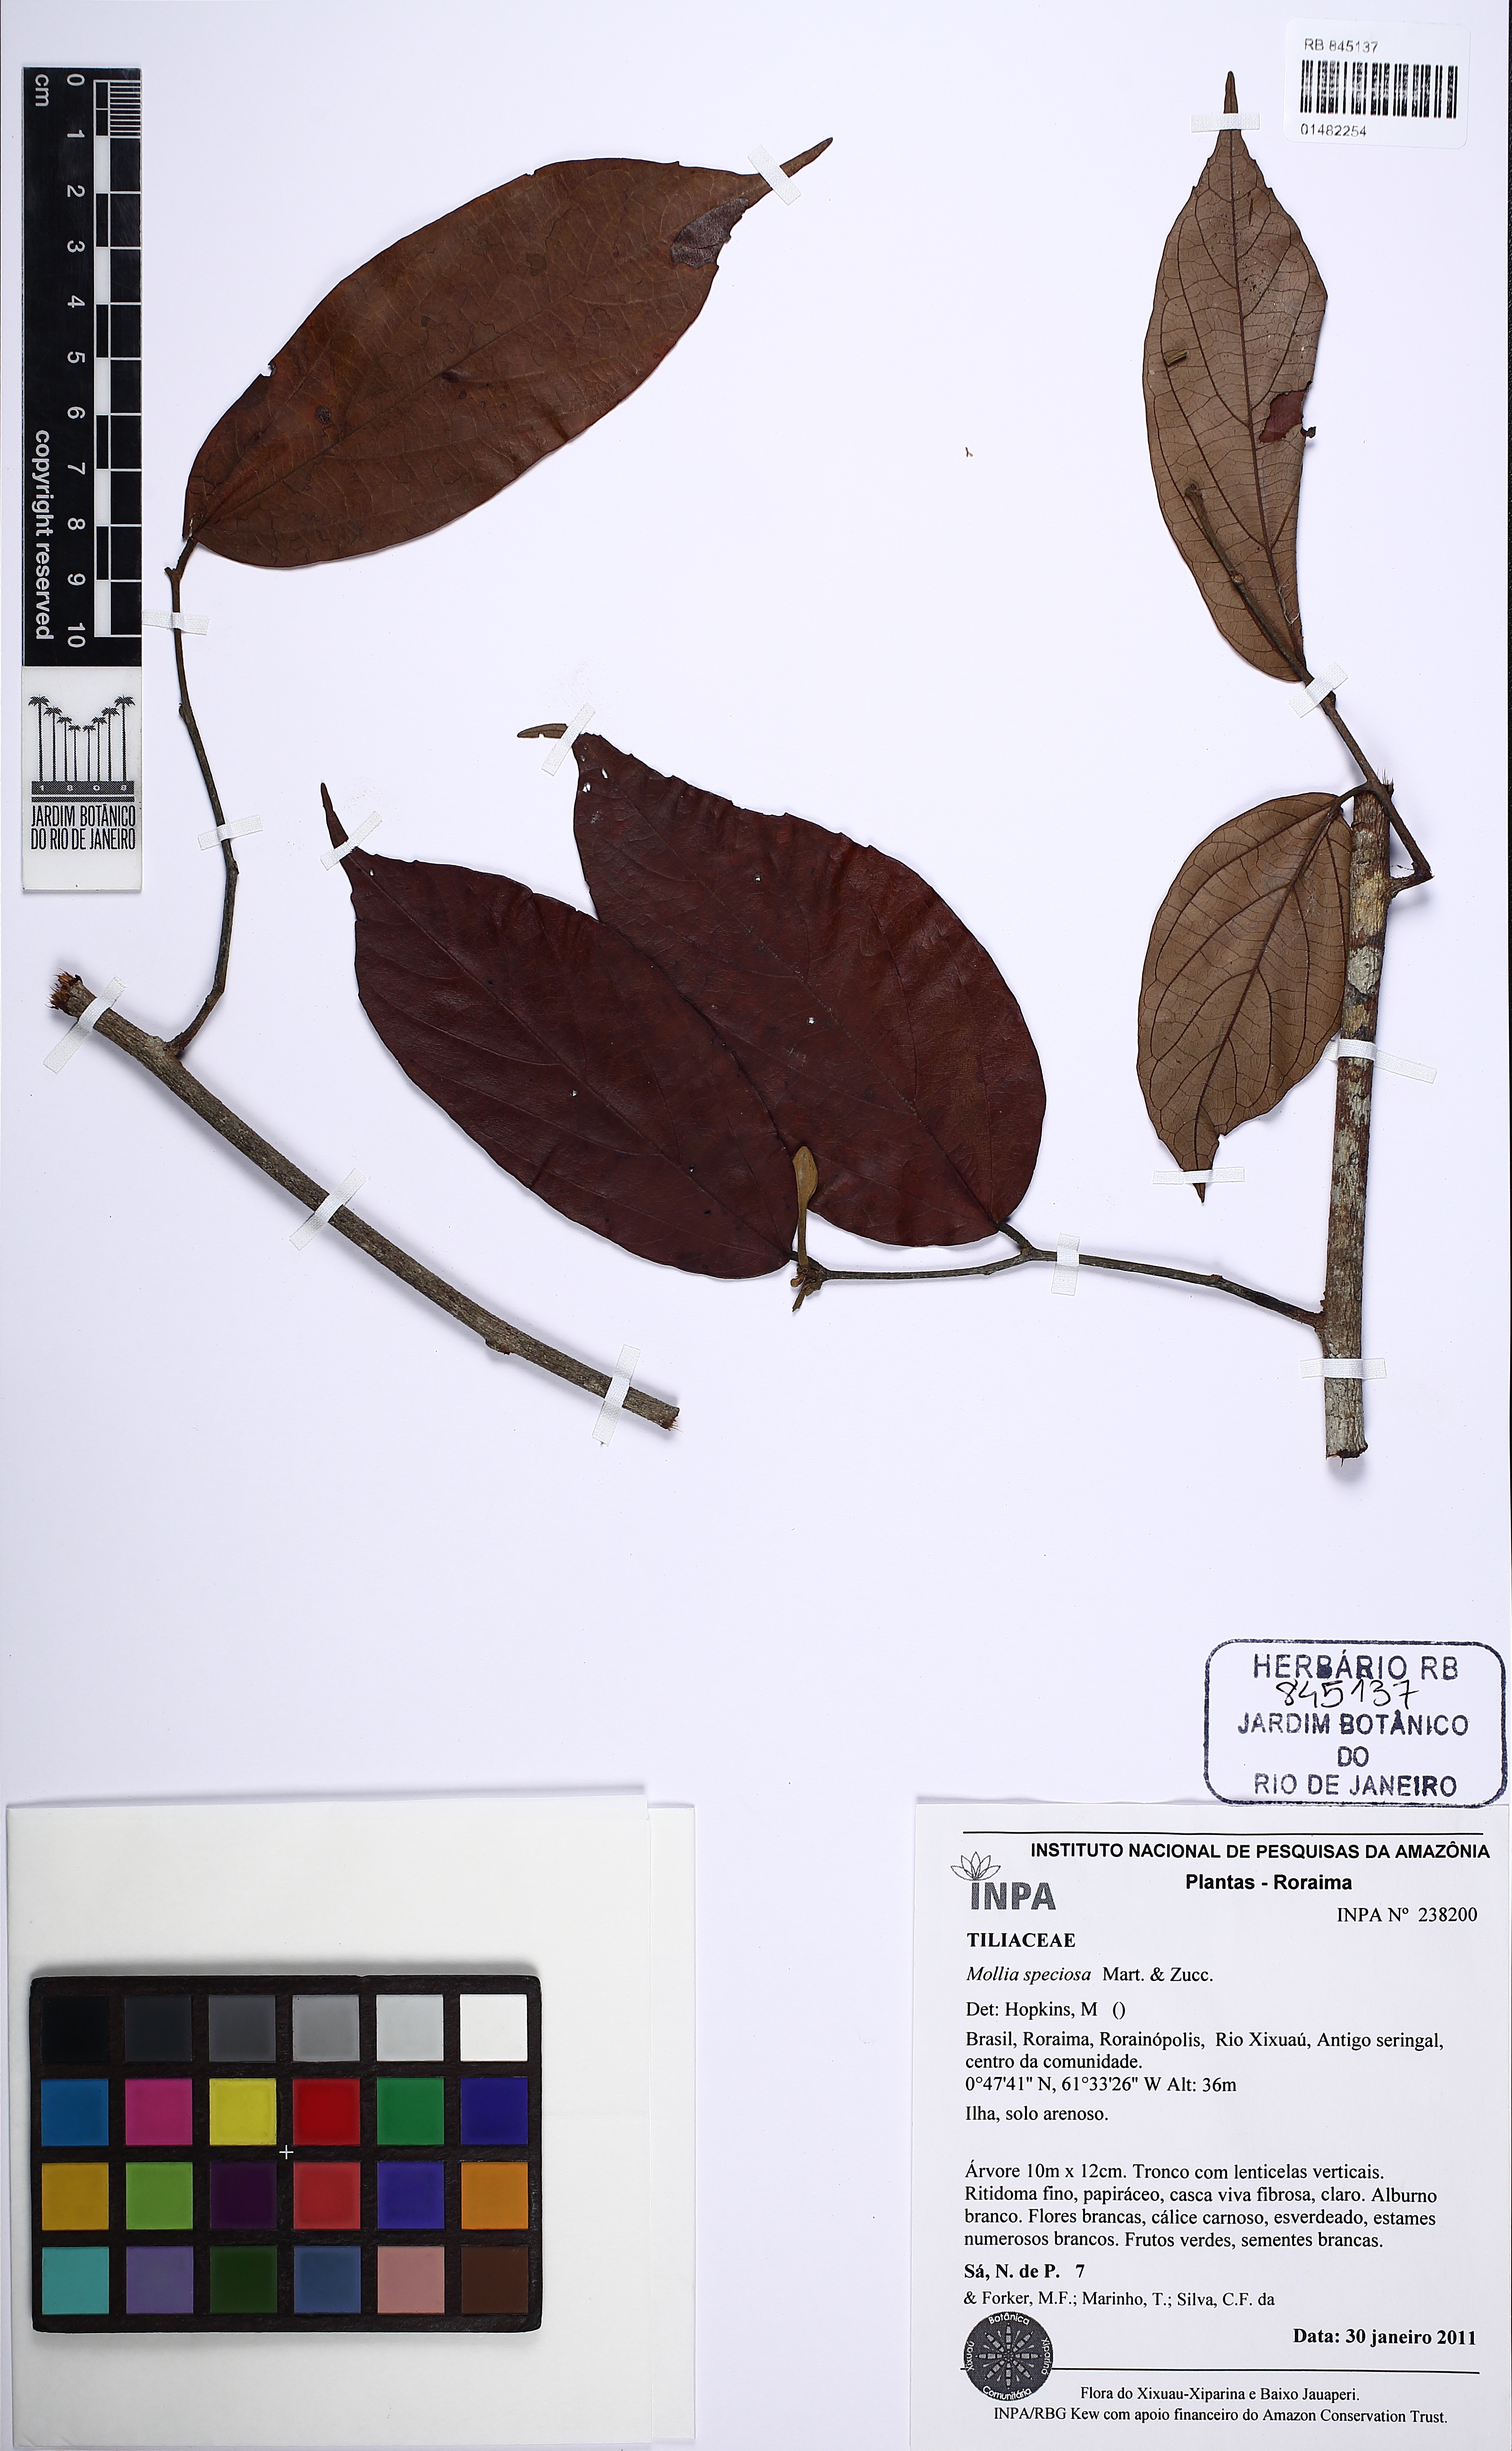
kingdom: Plantae
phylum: Tracheophyta
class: Magnoliopsida
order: Malvales
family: Malvaceae
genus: Mollia
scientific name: Mollia speciosa
